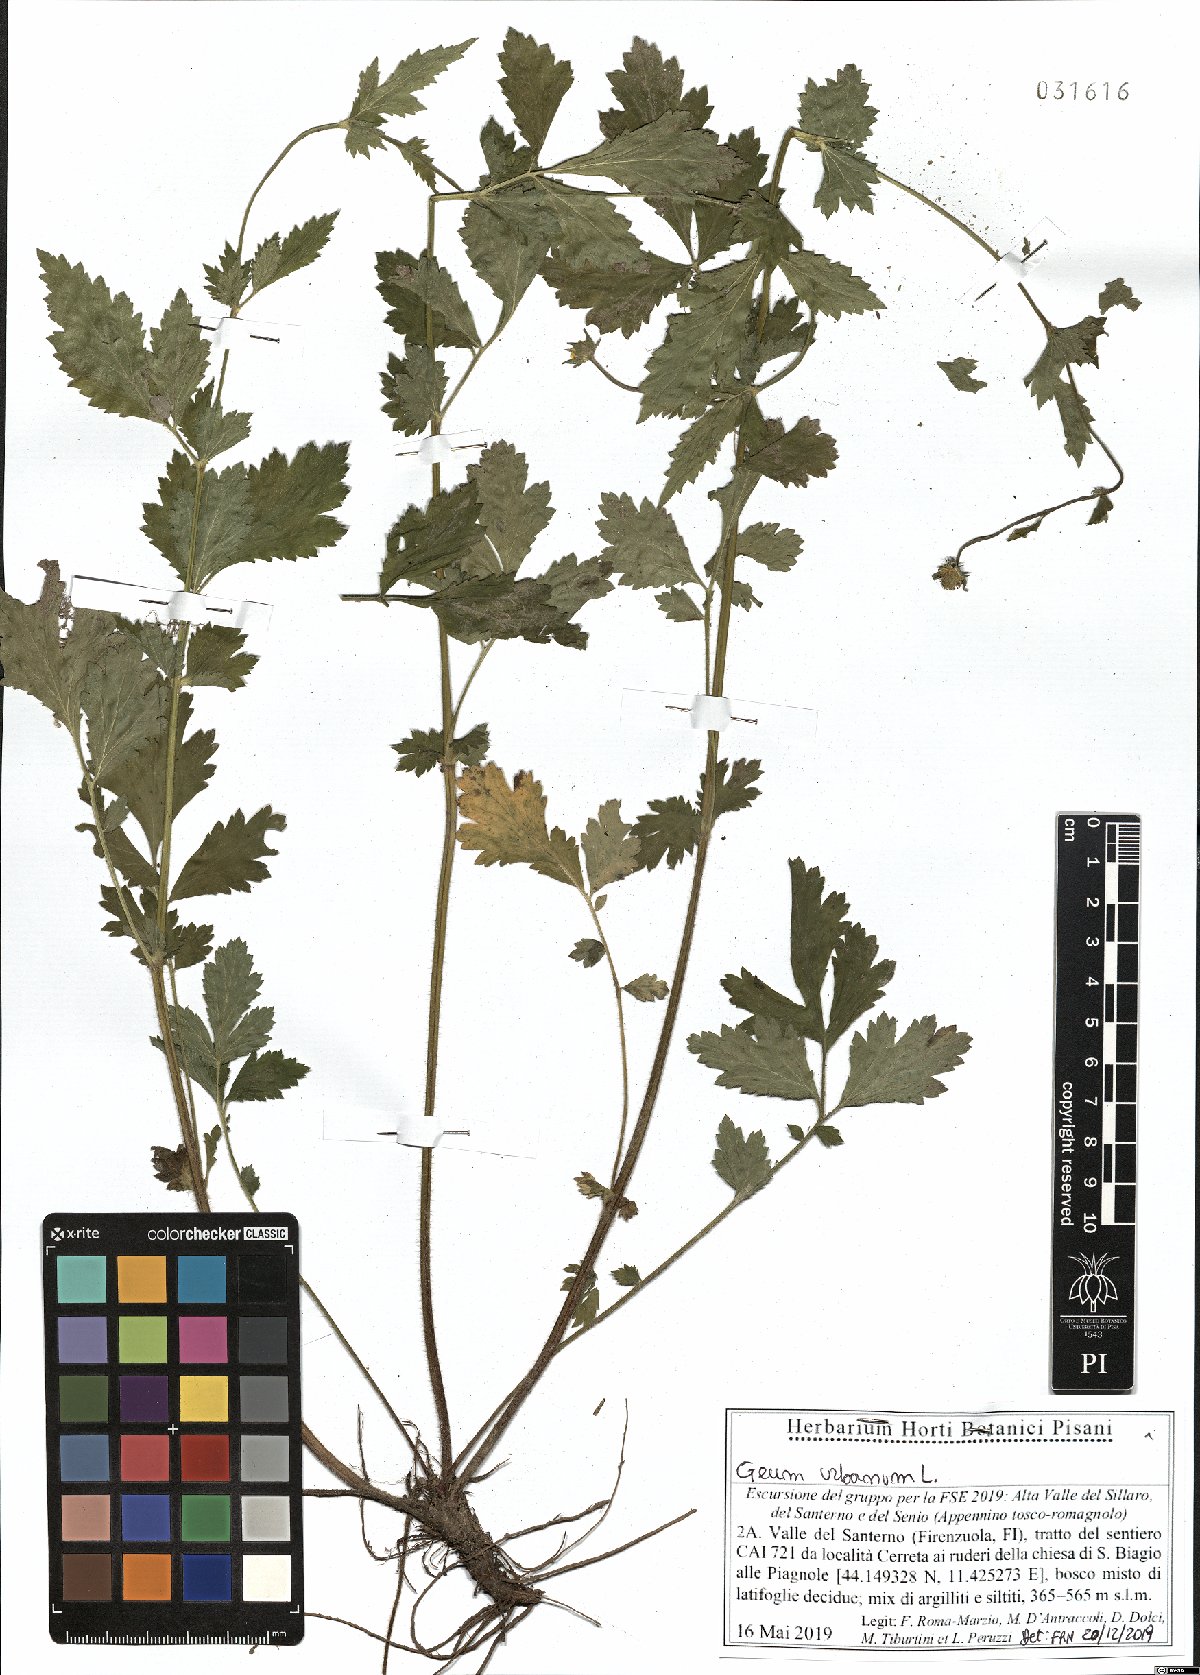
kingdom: Plantae
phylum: Tracheophyta
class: Magnoliopsida
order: Rosales
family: Rosaceae
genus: Geum
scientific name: Geum urbanum
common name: Wood avens
